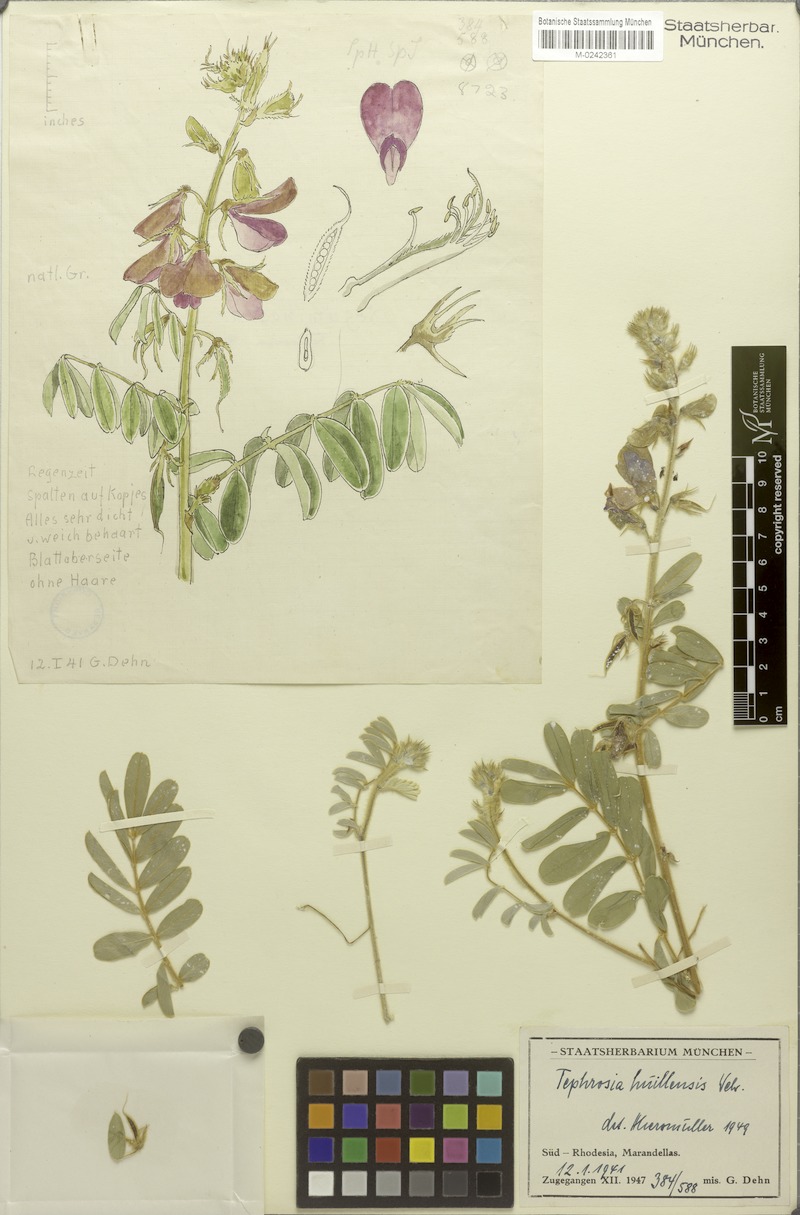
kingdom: Plantae
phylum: Tracheophyta
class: Magnoliopsida
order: Fabales
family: Fabaceae
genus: Tephrosia
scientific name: Tephrosia huillensis
